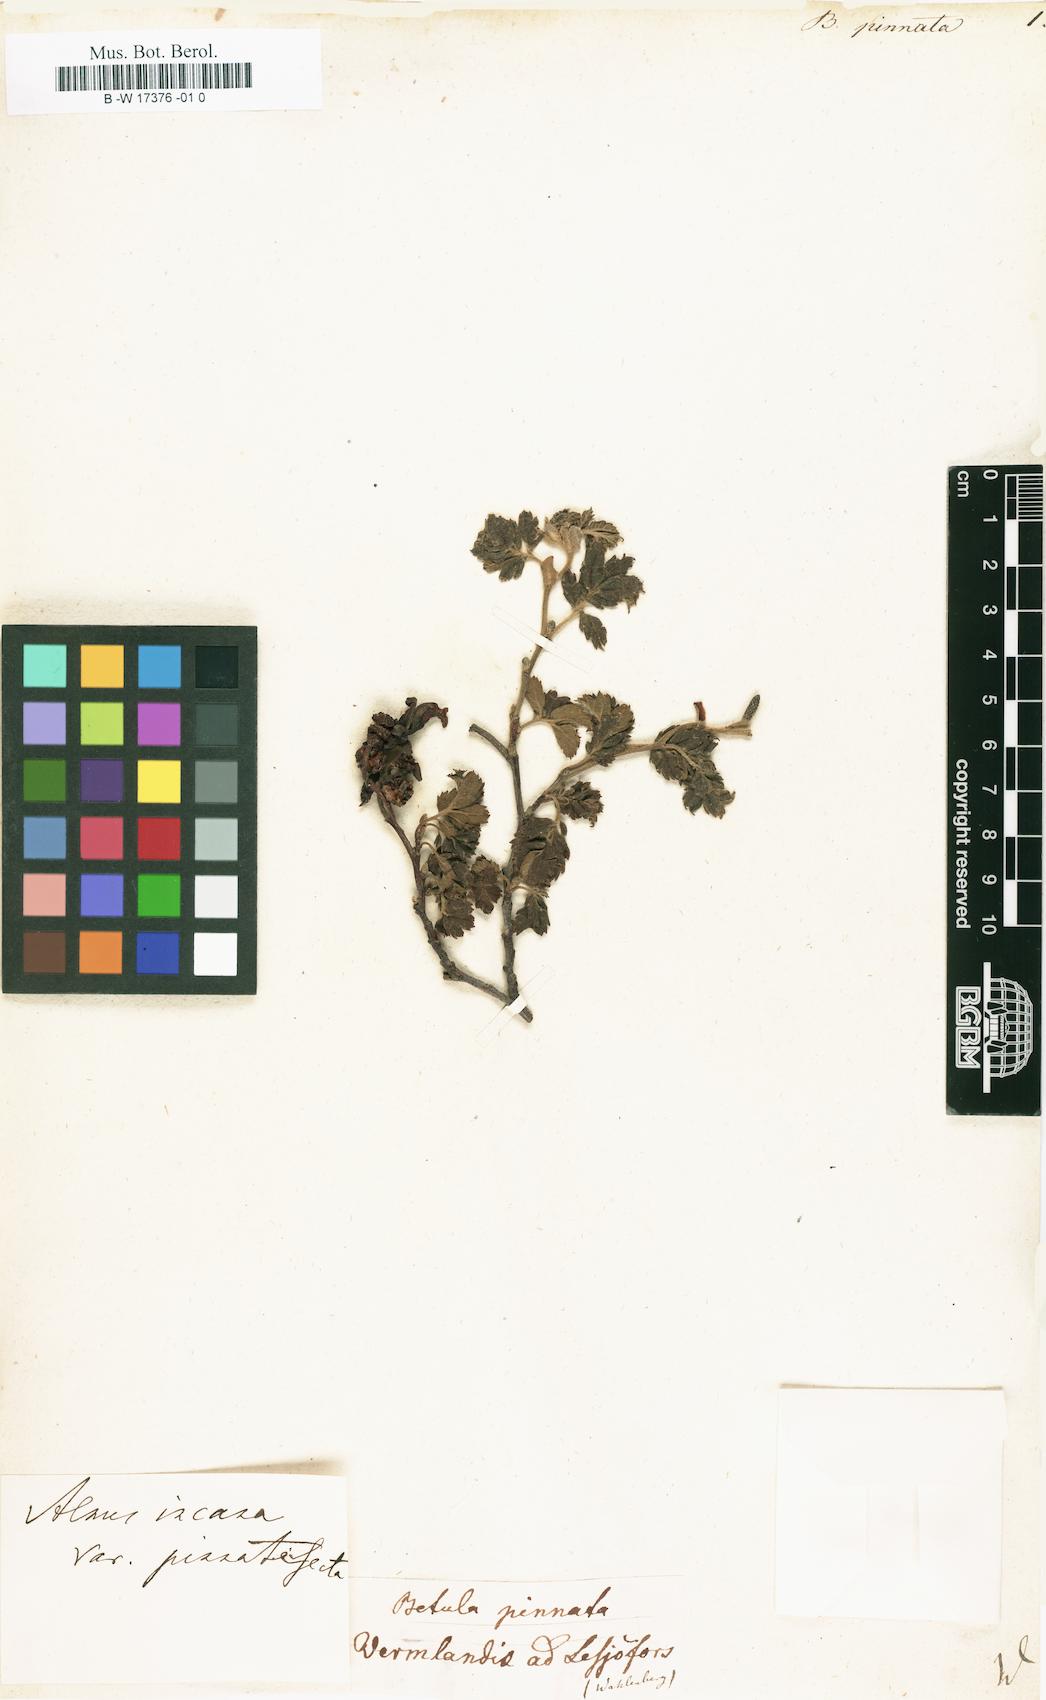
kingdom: Plantae
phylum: Tracheophyta
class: Magnoliopsida
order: Fagales
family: Betulaceae
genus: Alnus
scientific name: Alnus
